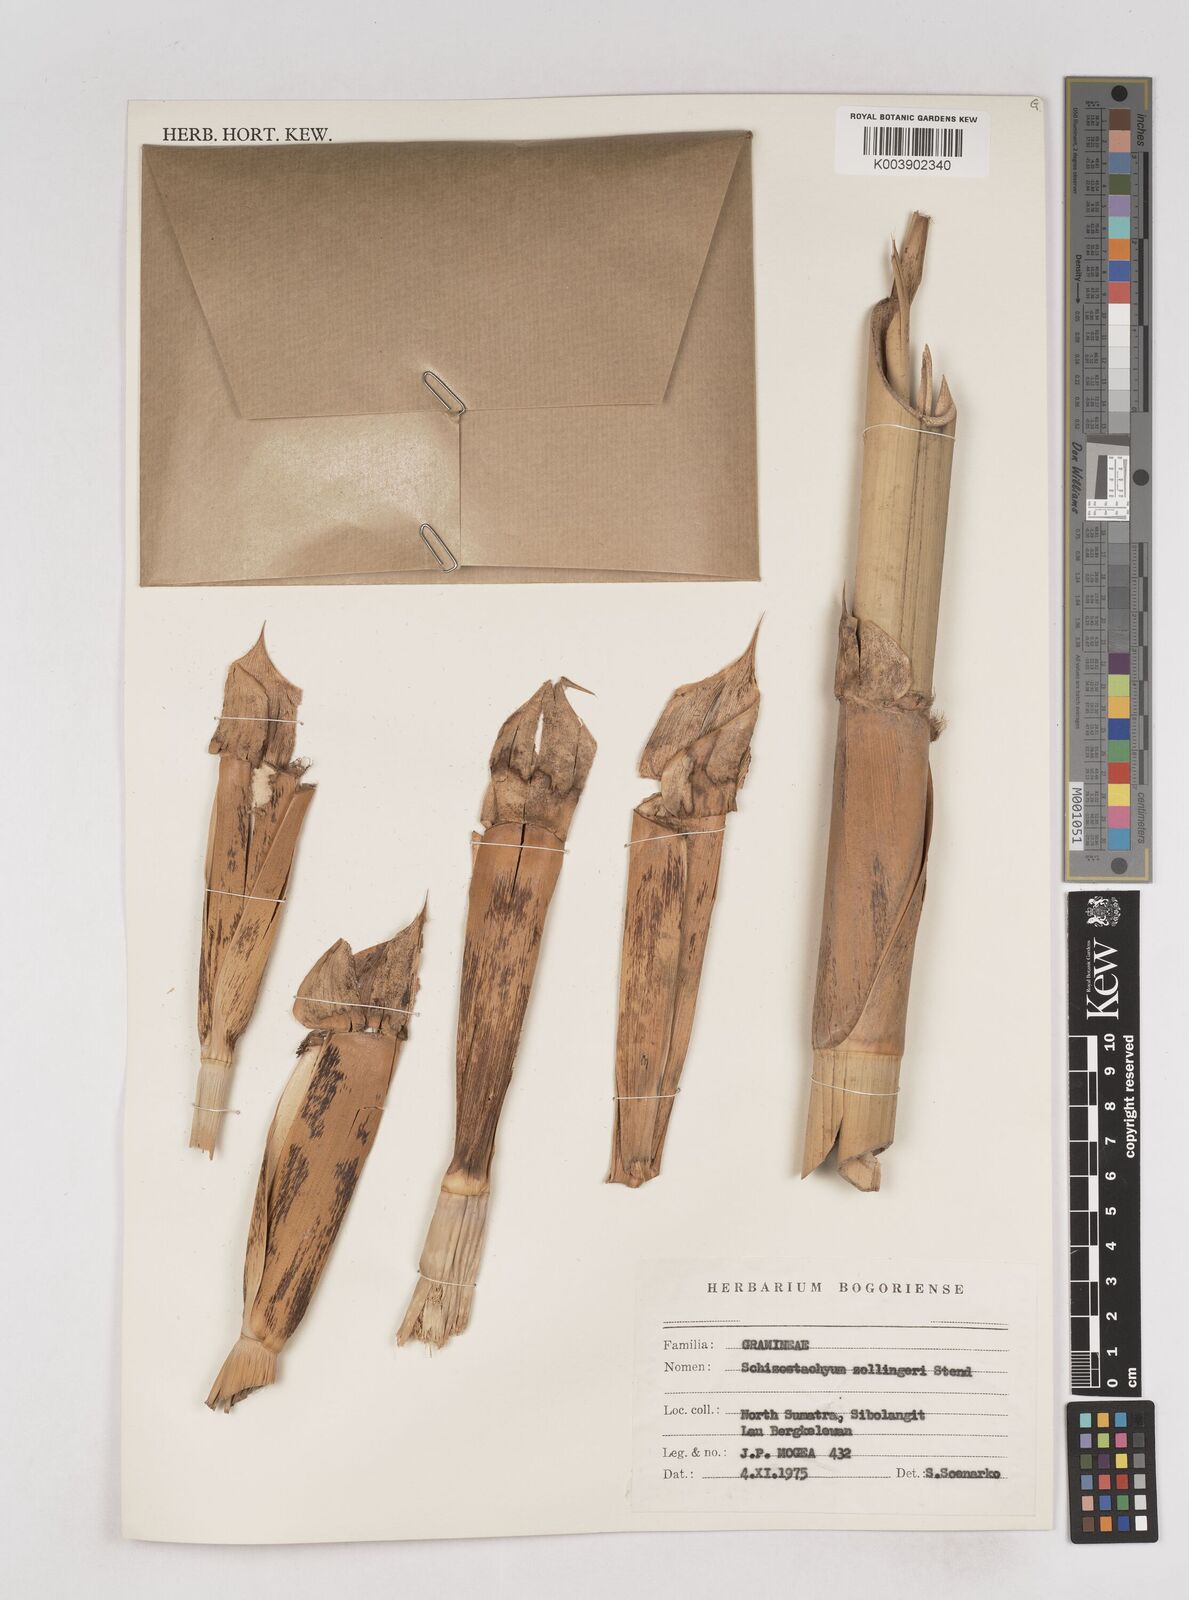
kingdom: Plantae
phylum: Tracheophyta
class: Liliopsida
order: Poales
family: Poaceae
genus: Schizostachyum
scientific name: Schizostachyum zollingeri
